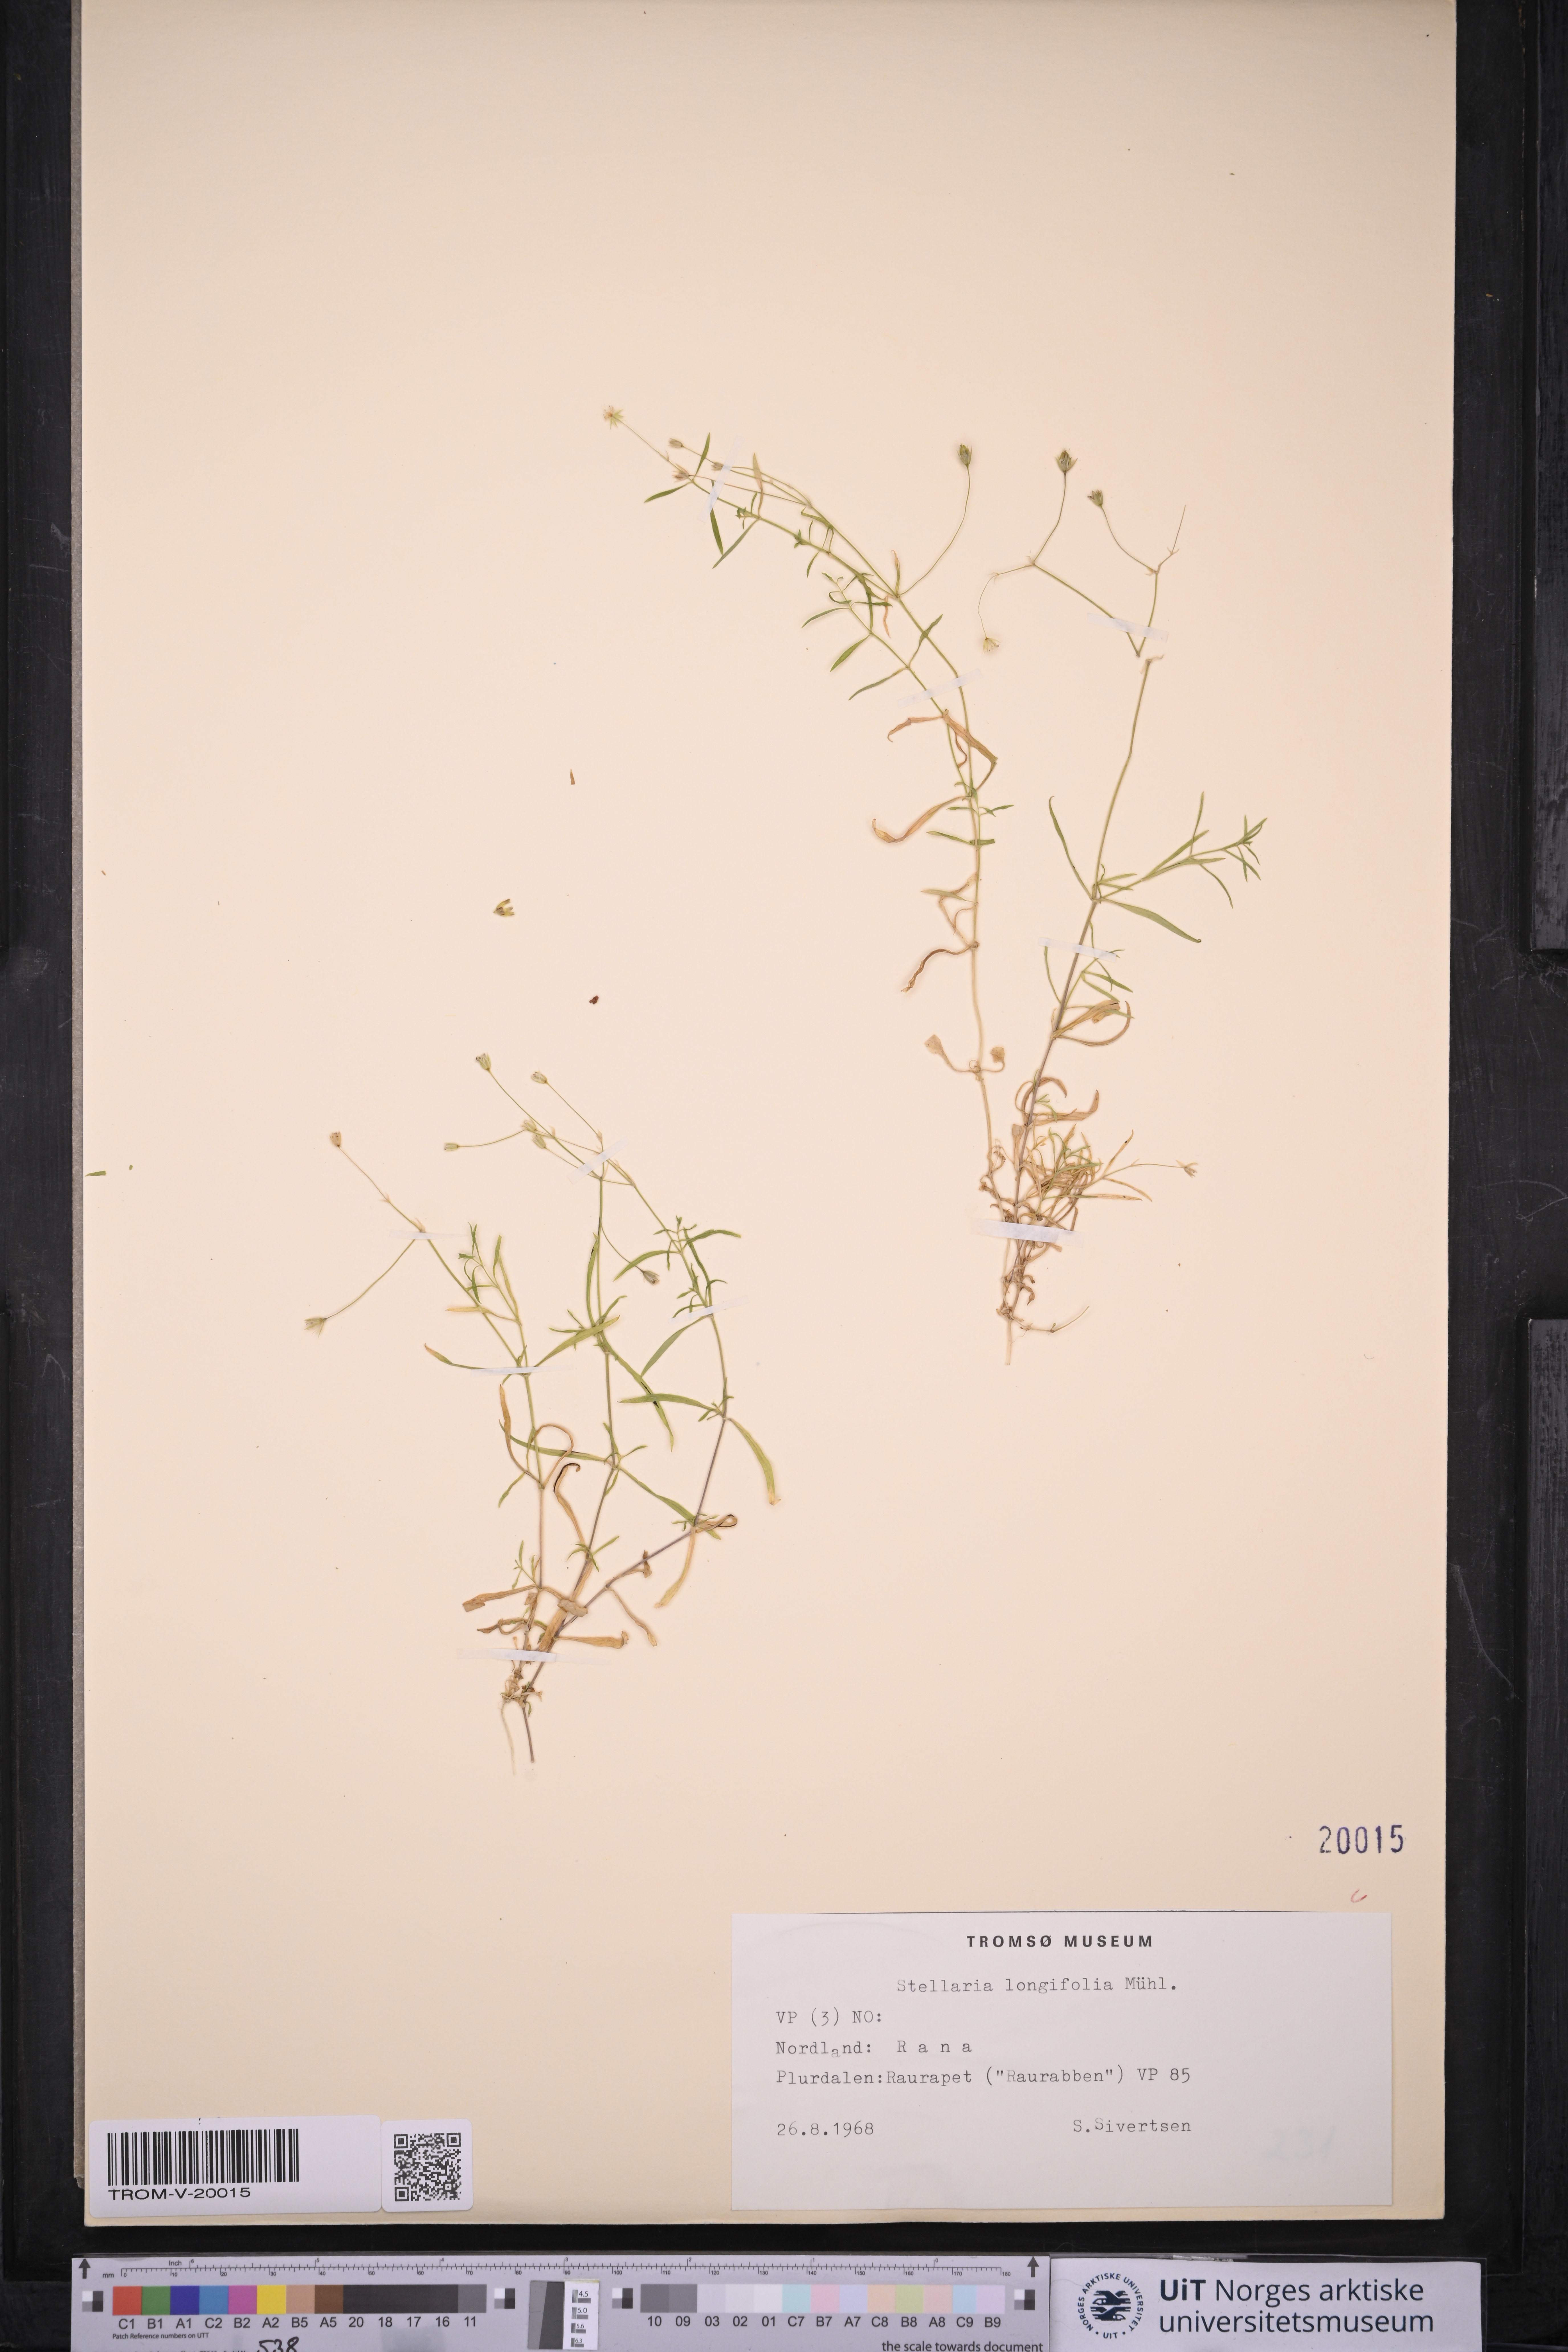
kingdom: Plantae
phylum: Tracheophyta
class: Magnoliopsida
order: Caryophyllales
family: Caryophyllaceae
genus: Stellaria
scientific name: Stellaria longifolia
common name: Long-leaved chickweed
